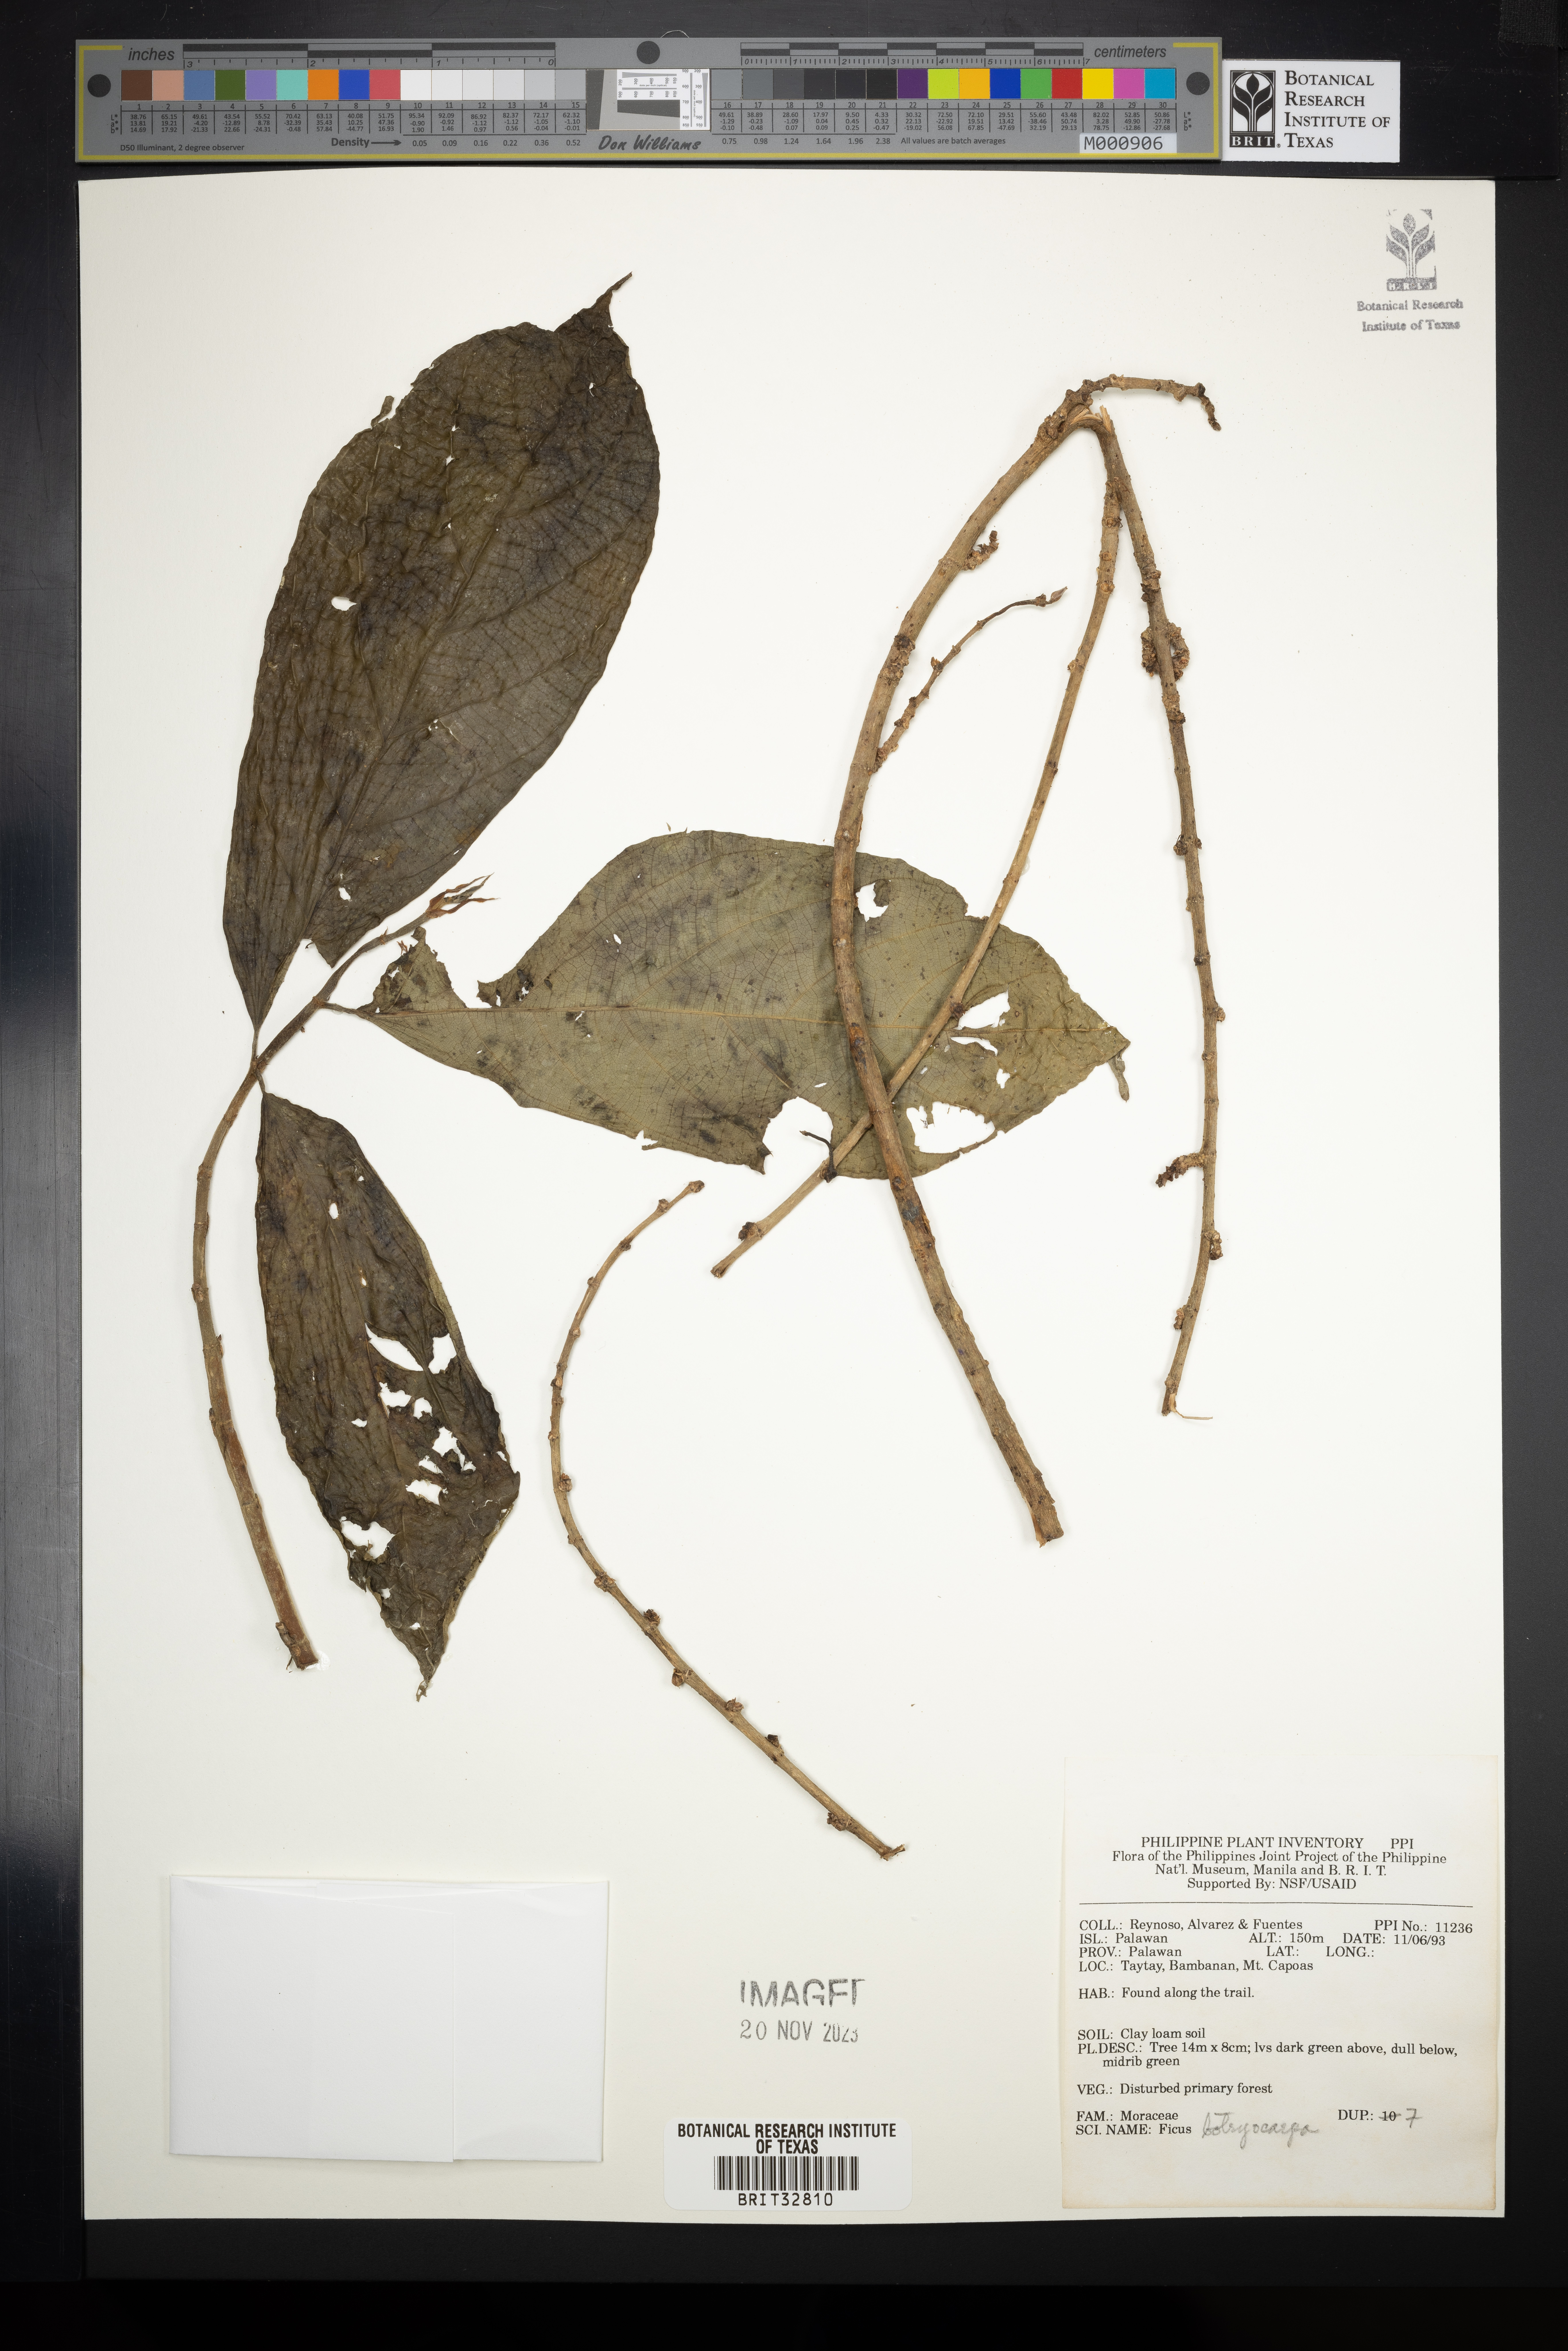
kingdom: Plantae
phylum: Tracheophyta
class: Magnoliopsida
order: Rosales
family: Moraceae
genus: Ficus
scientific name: Ficus botryocarpa
